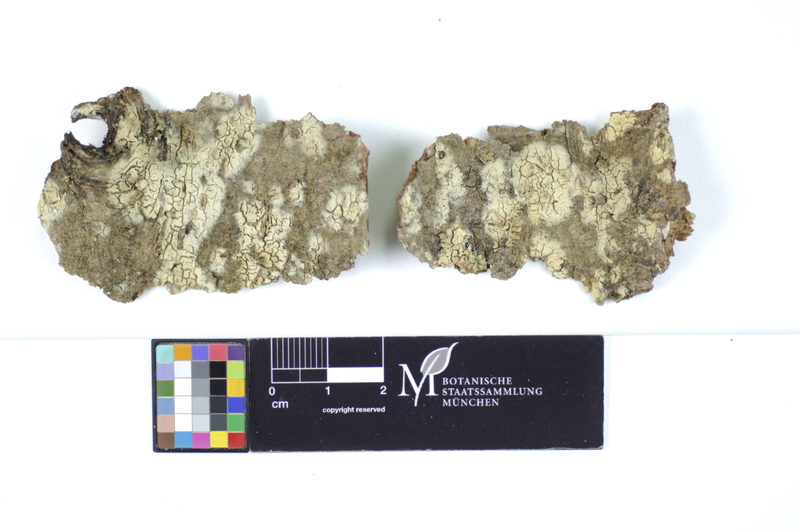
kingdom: Plantae
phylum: Tracheophyta
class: Magnoliopsida
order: Sapindales
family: Sapindaceae
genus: Acer
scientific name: Acer
